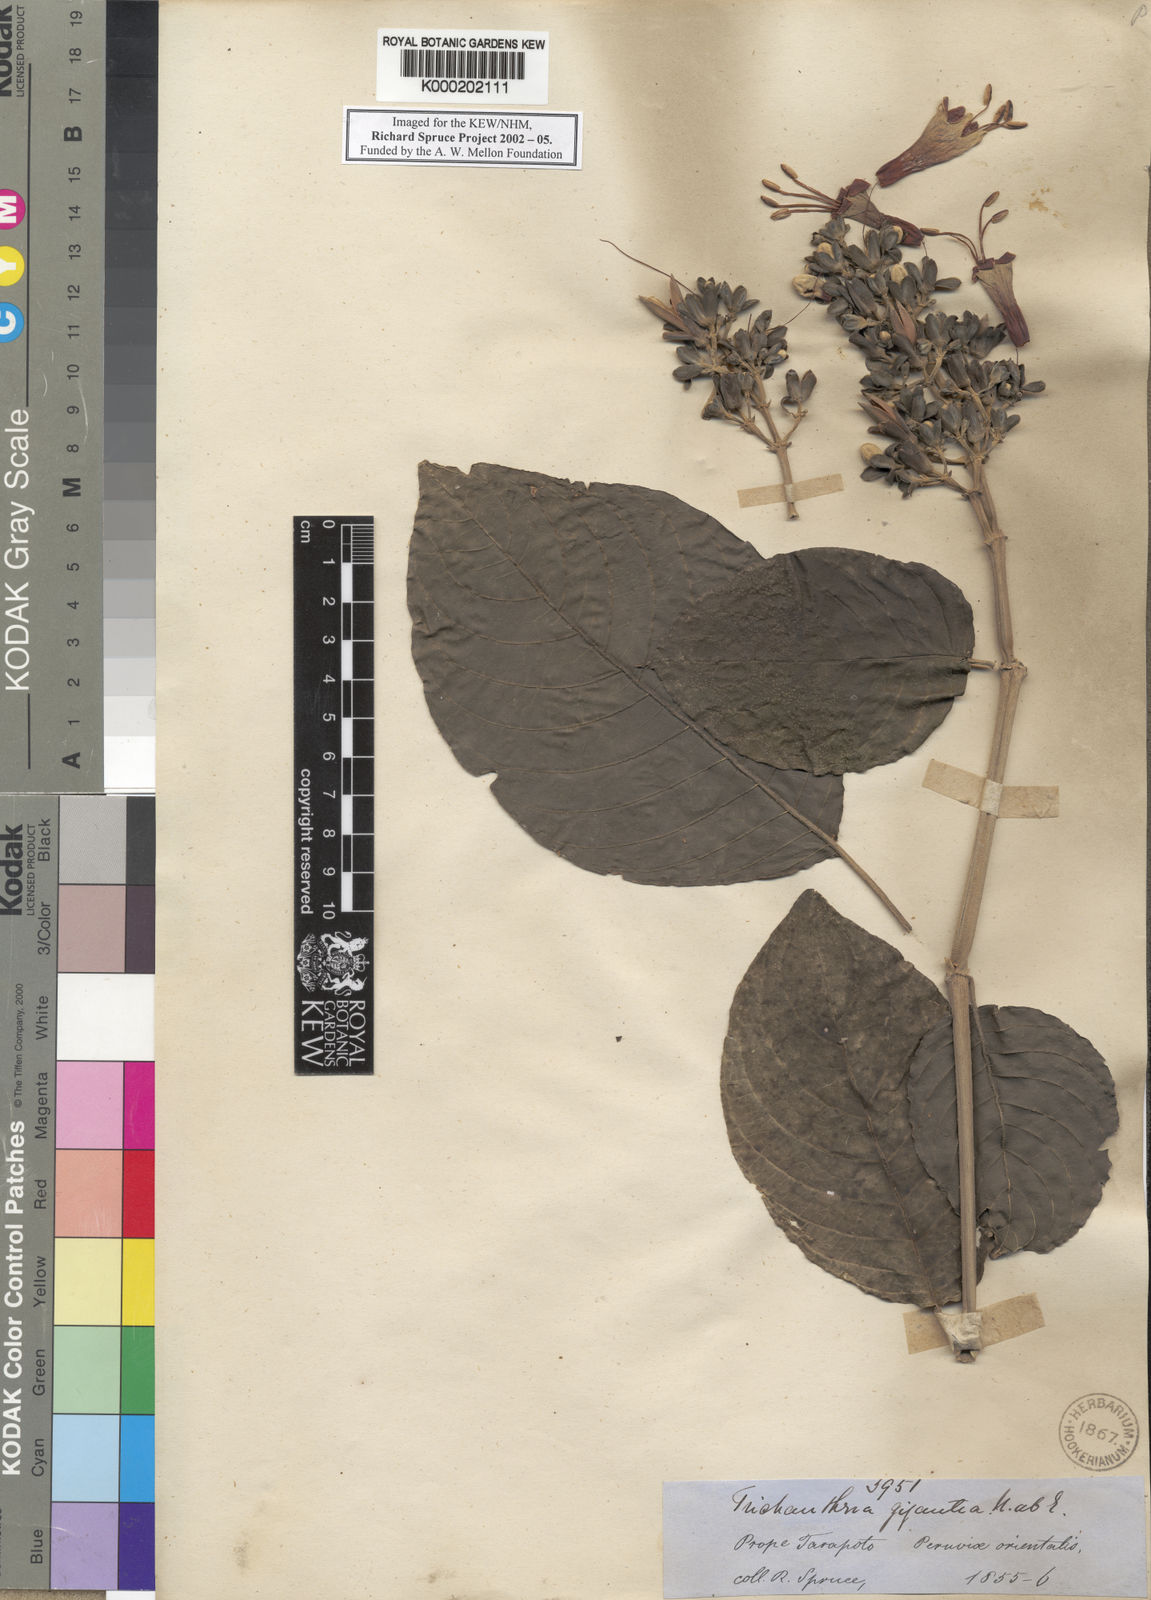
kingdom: Plantae
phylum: Tracheophyta
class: Magnoliopsida
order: Lamiales
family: Acanthaceae
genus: Trichanthera
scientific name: Trichanthera gigantea
